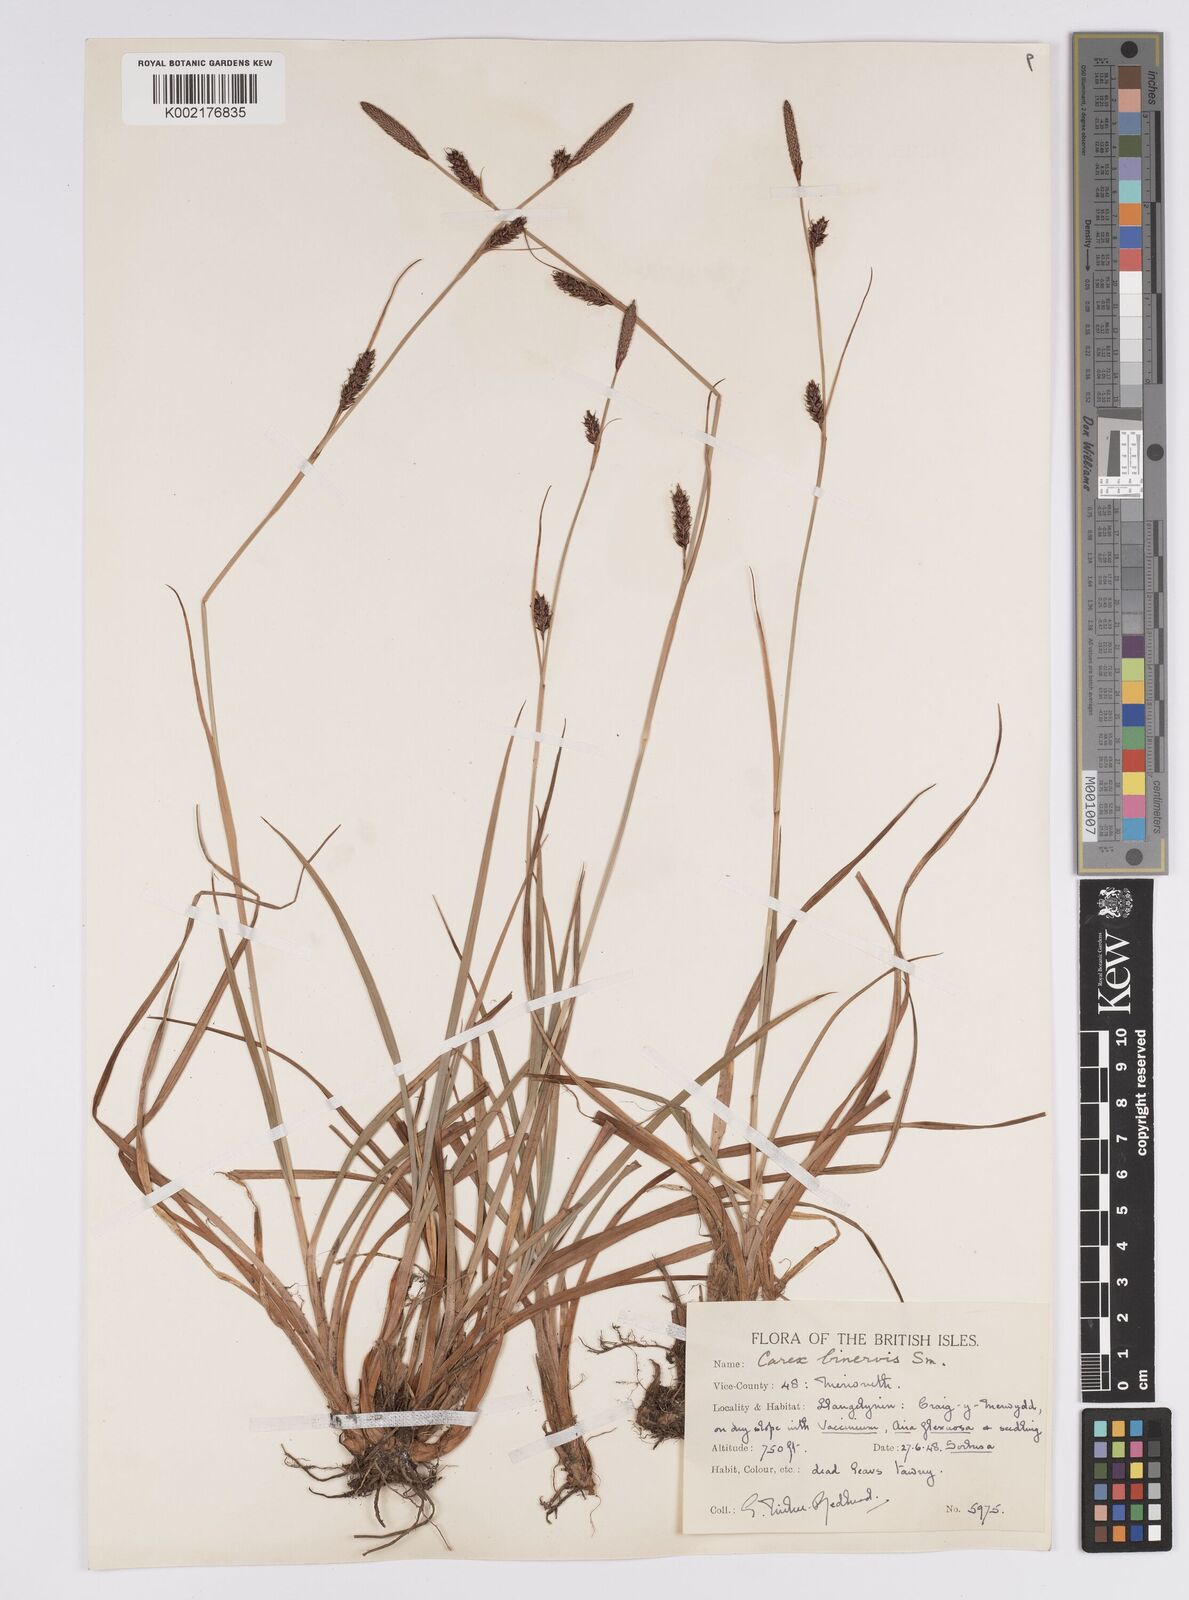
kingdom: Plantae
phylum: Tracheophyta
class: Liliopsida
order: Poales
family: Cyperaceae
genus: Carex
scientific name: Carex binervis
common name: Green-ribbed sedge
